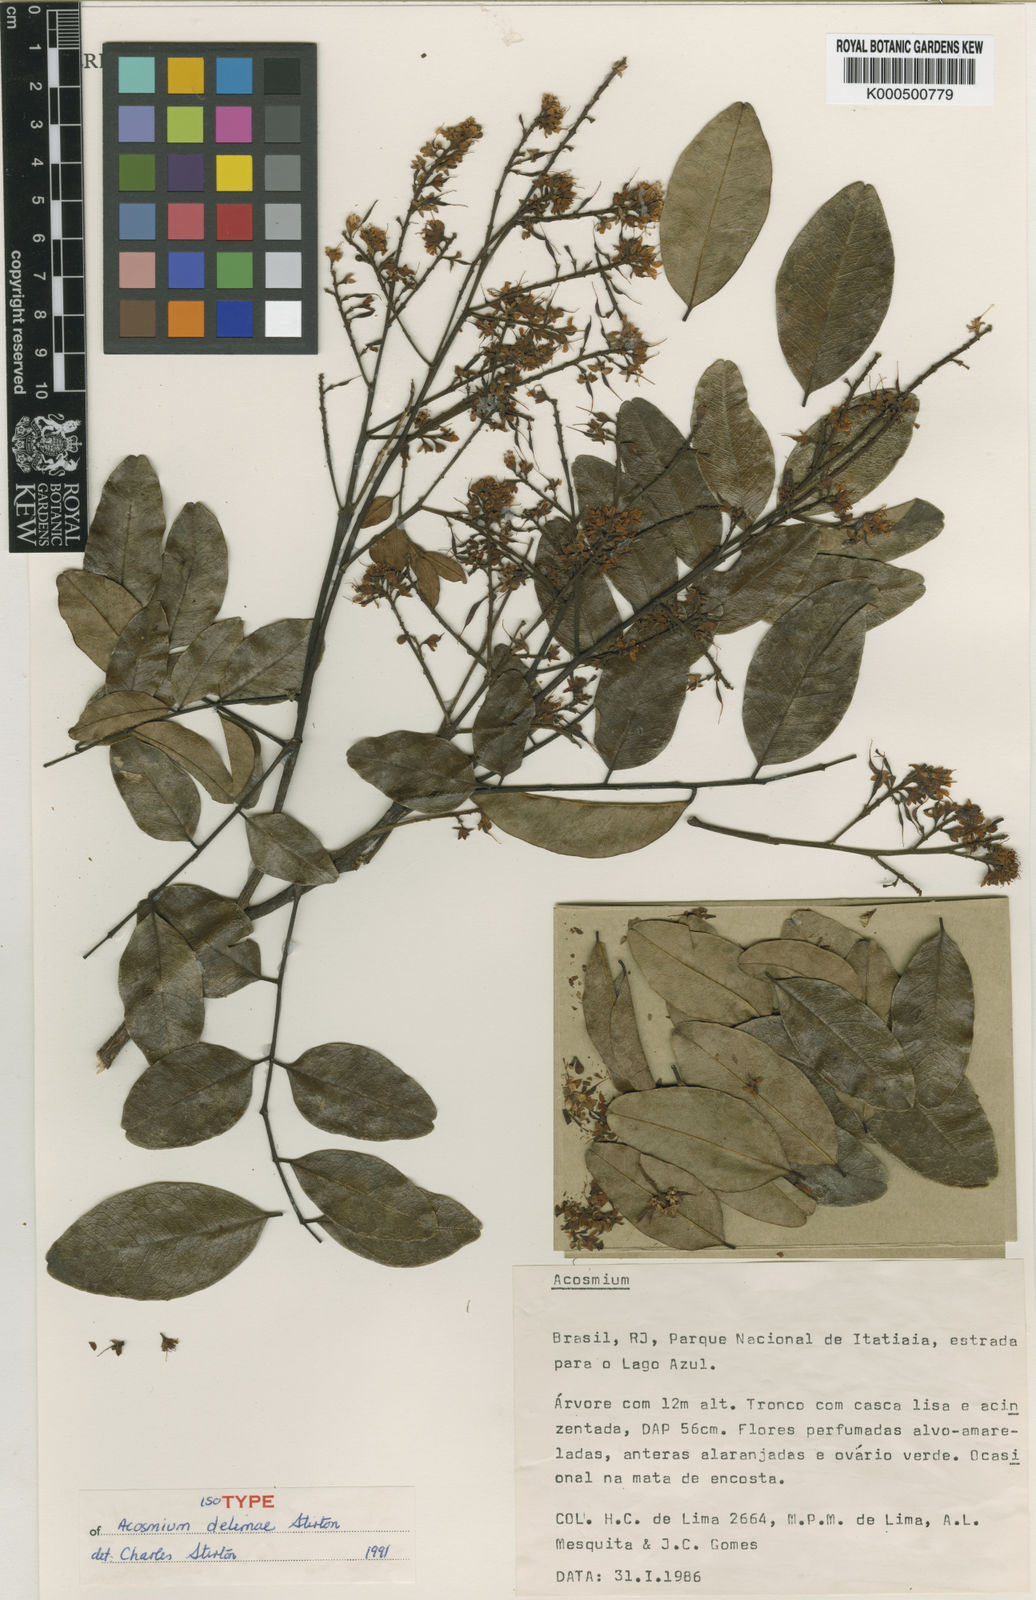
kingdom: Plantae
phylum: Tracheophyta
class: Magnoliopsida
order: Fabales
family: Fabaceae
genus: Acosmium
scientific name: Acosmium
